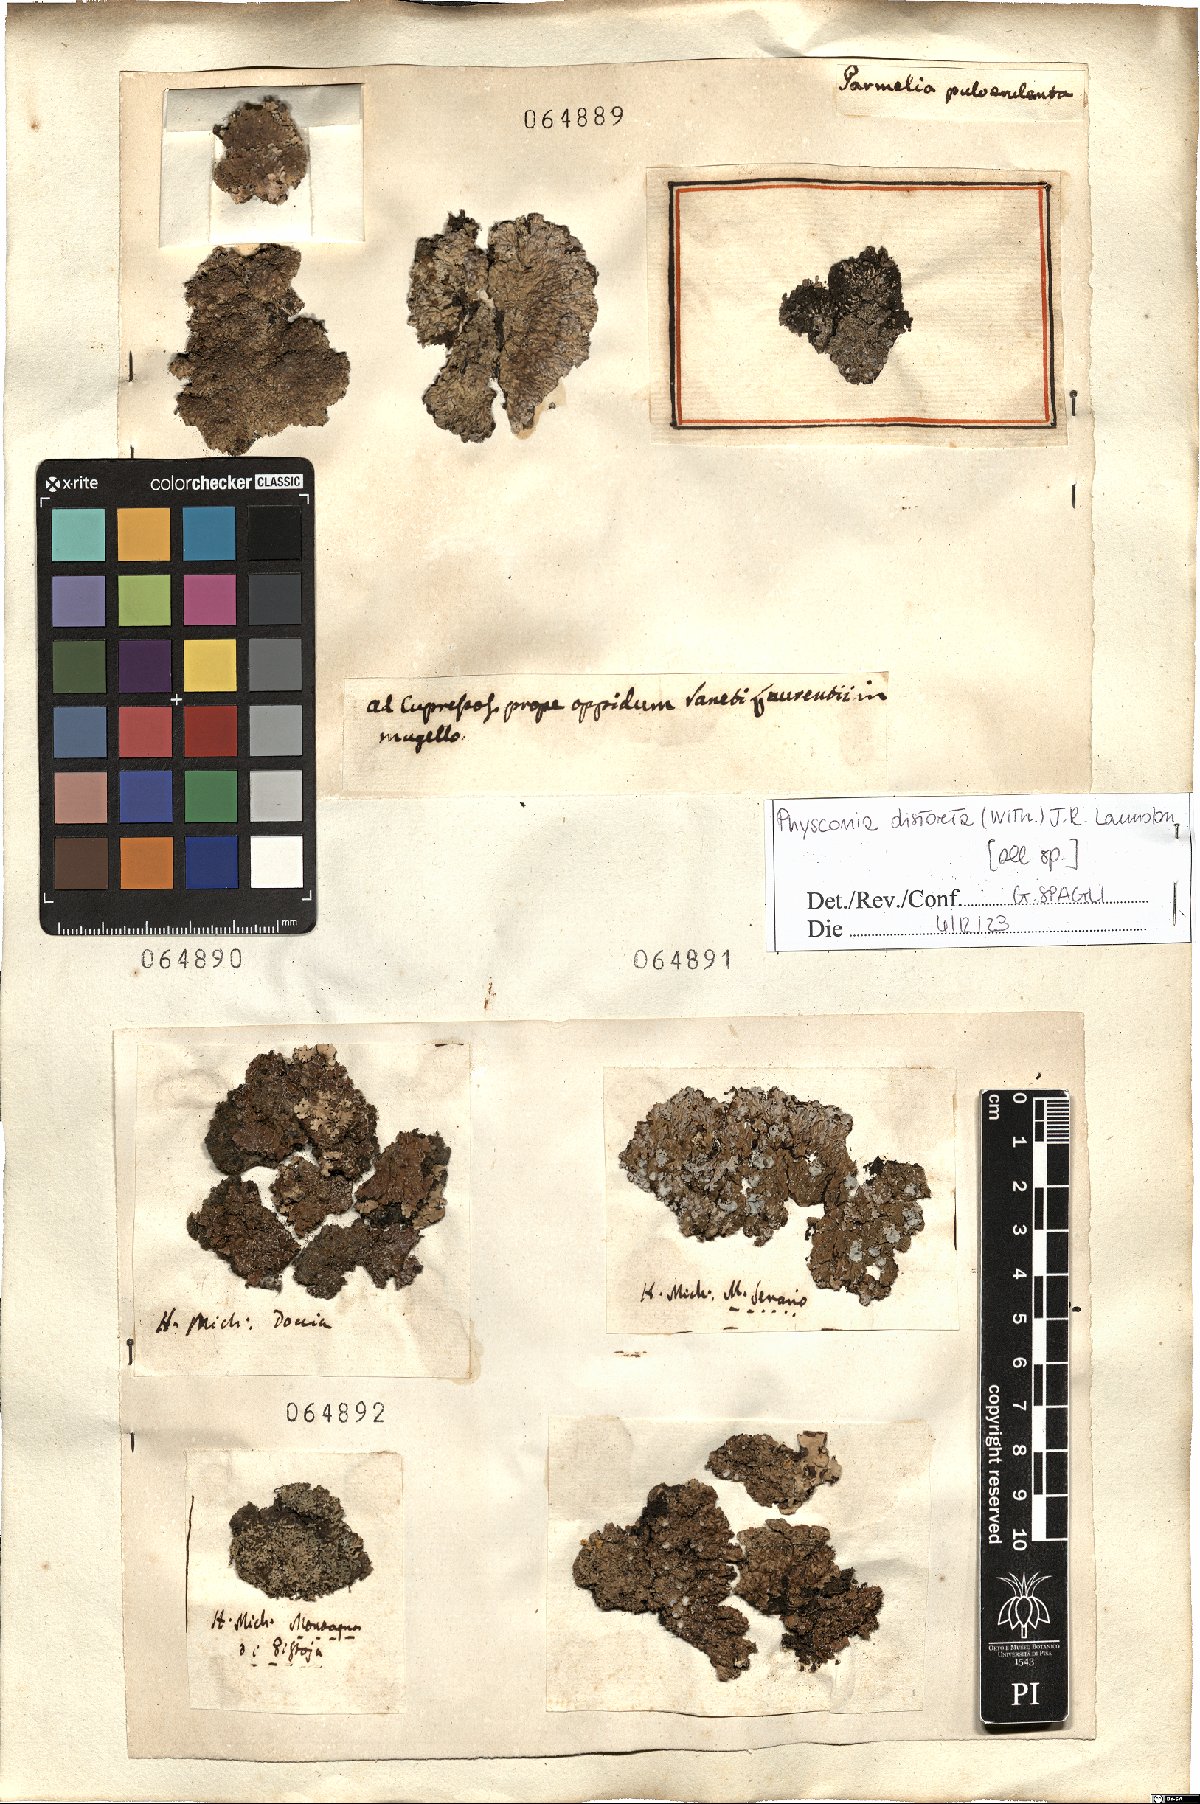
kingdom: Fungi
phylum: Ascomycota
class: Lecanoromycetes
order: Caliciales
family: Physciaceae
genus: Physconia
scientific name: Physconia distorta
